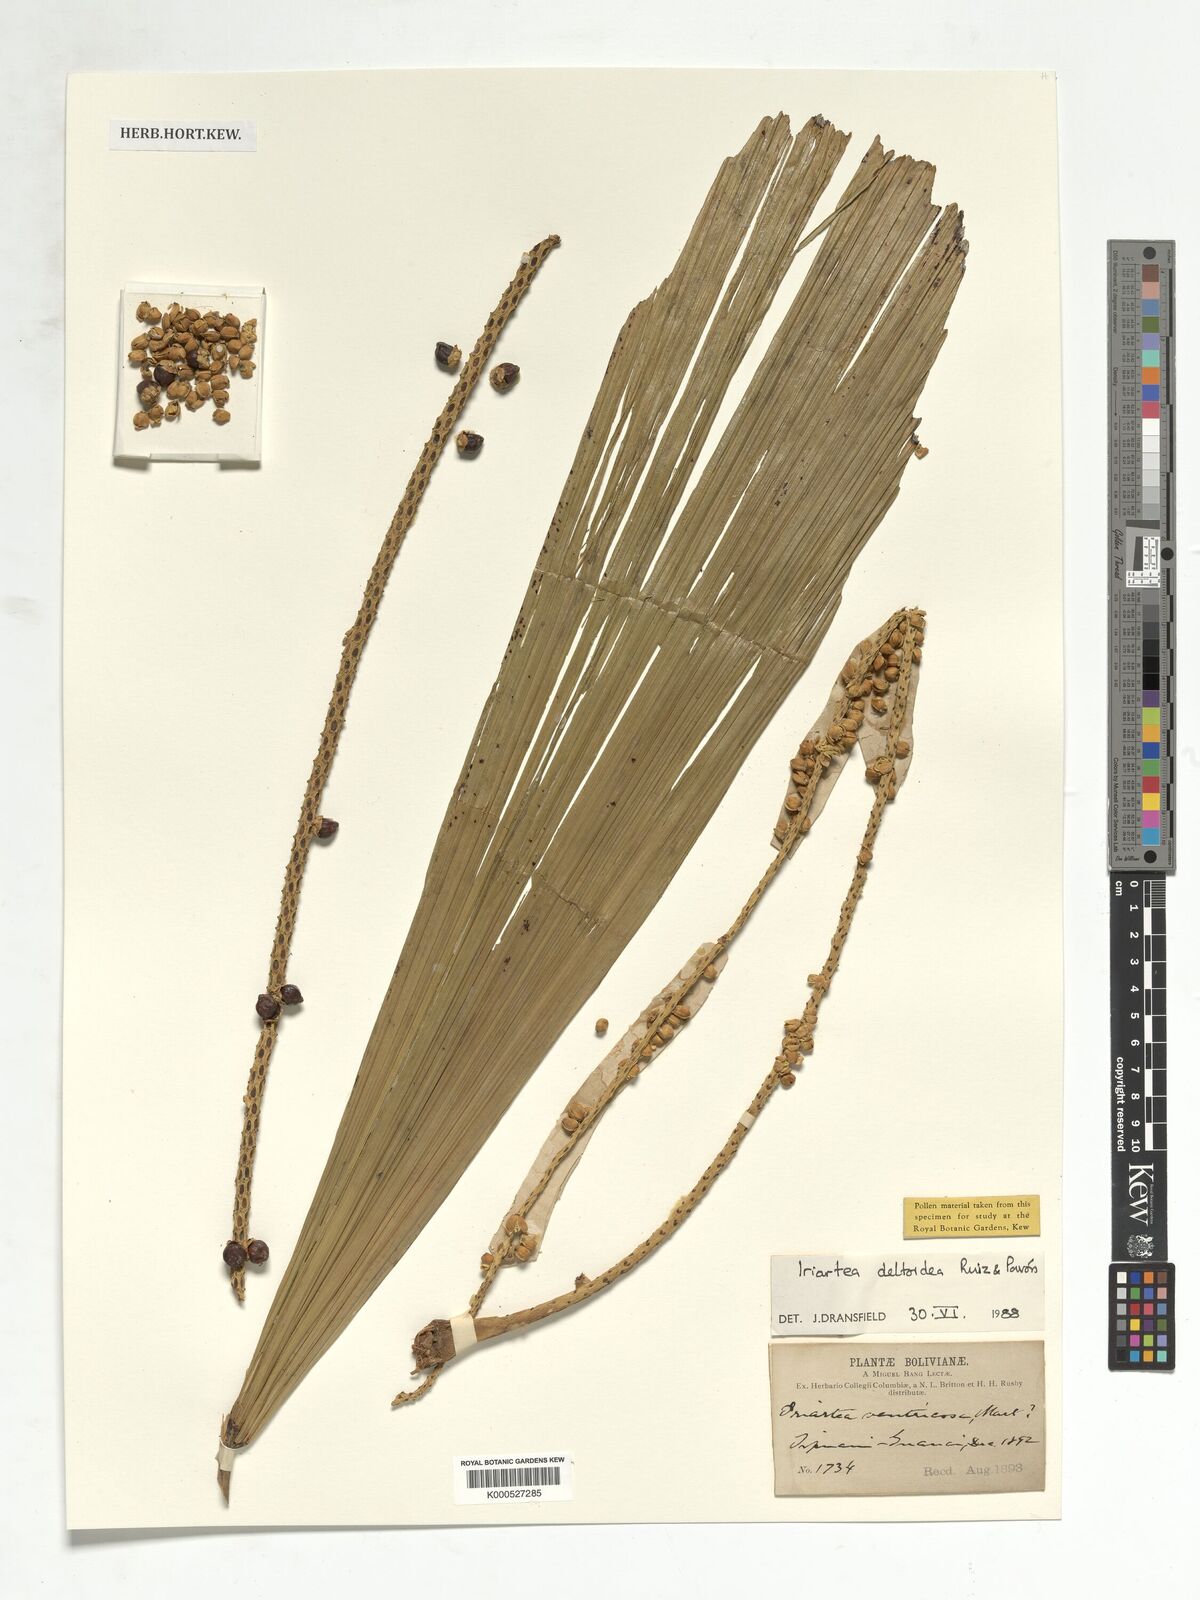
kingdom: Plantae
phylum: Tracheophyta
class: Liliopsida
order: Arecales
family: Arecaceae
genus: Iriartea
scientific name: Iriartea deltoidea
